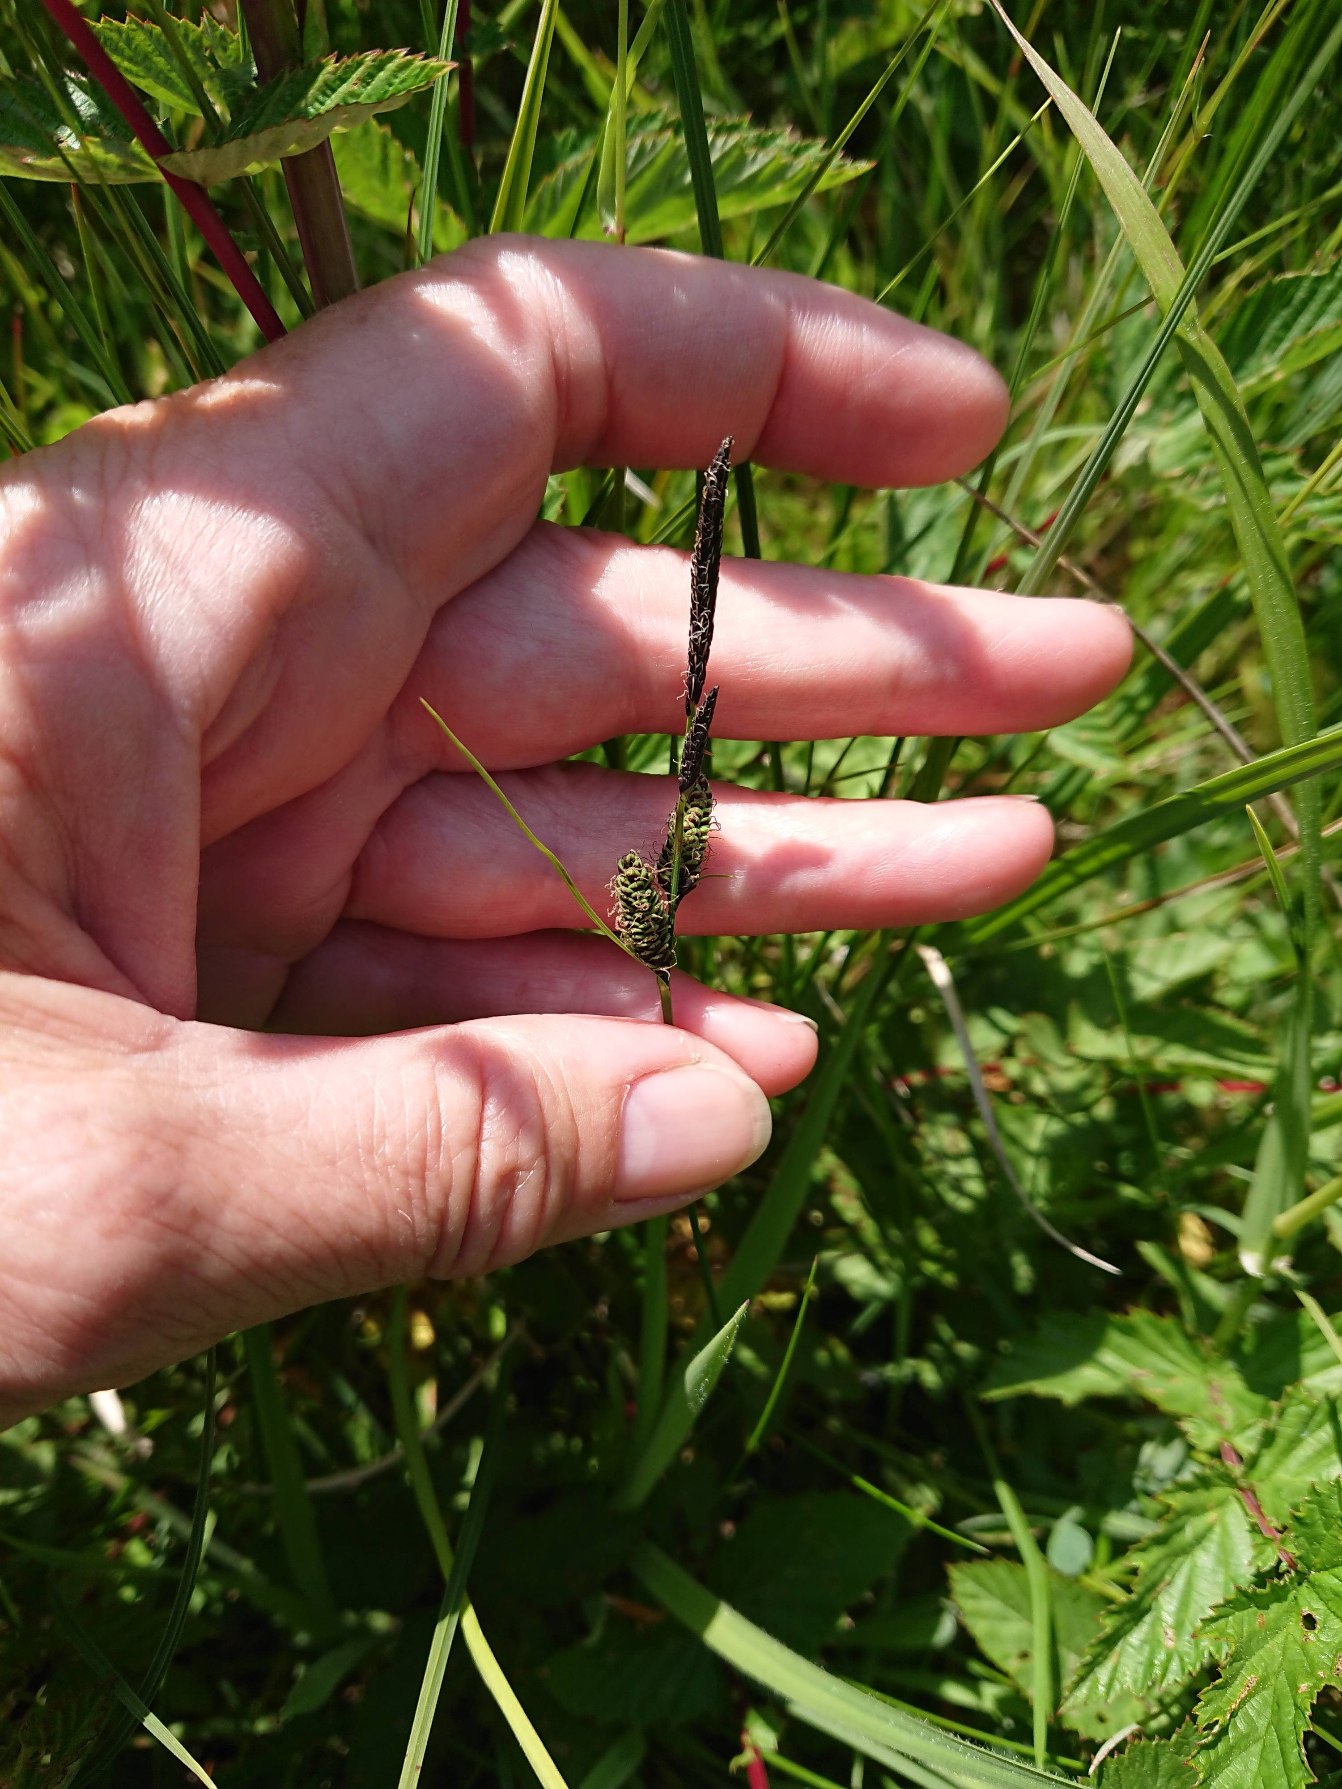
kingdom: Plantae
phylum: Tracheophyta
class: Liliopsida
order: Poales
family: Cyperaceae
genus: Carex
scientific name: Carex nigra
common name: Almindelig star (varietet)
